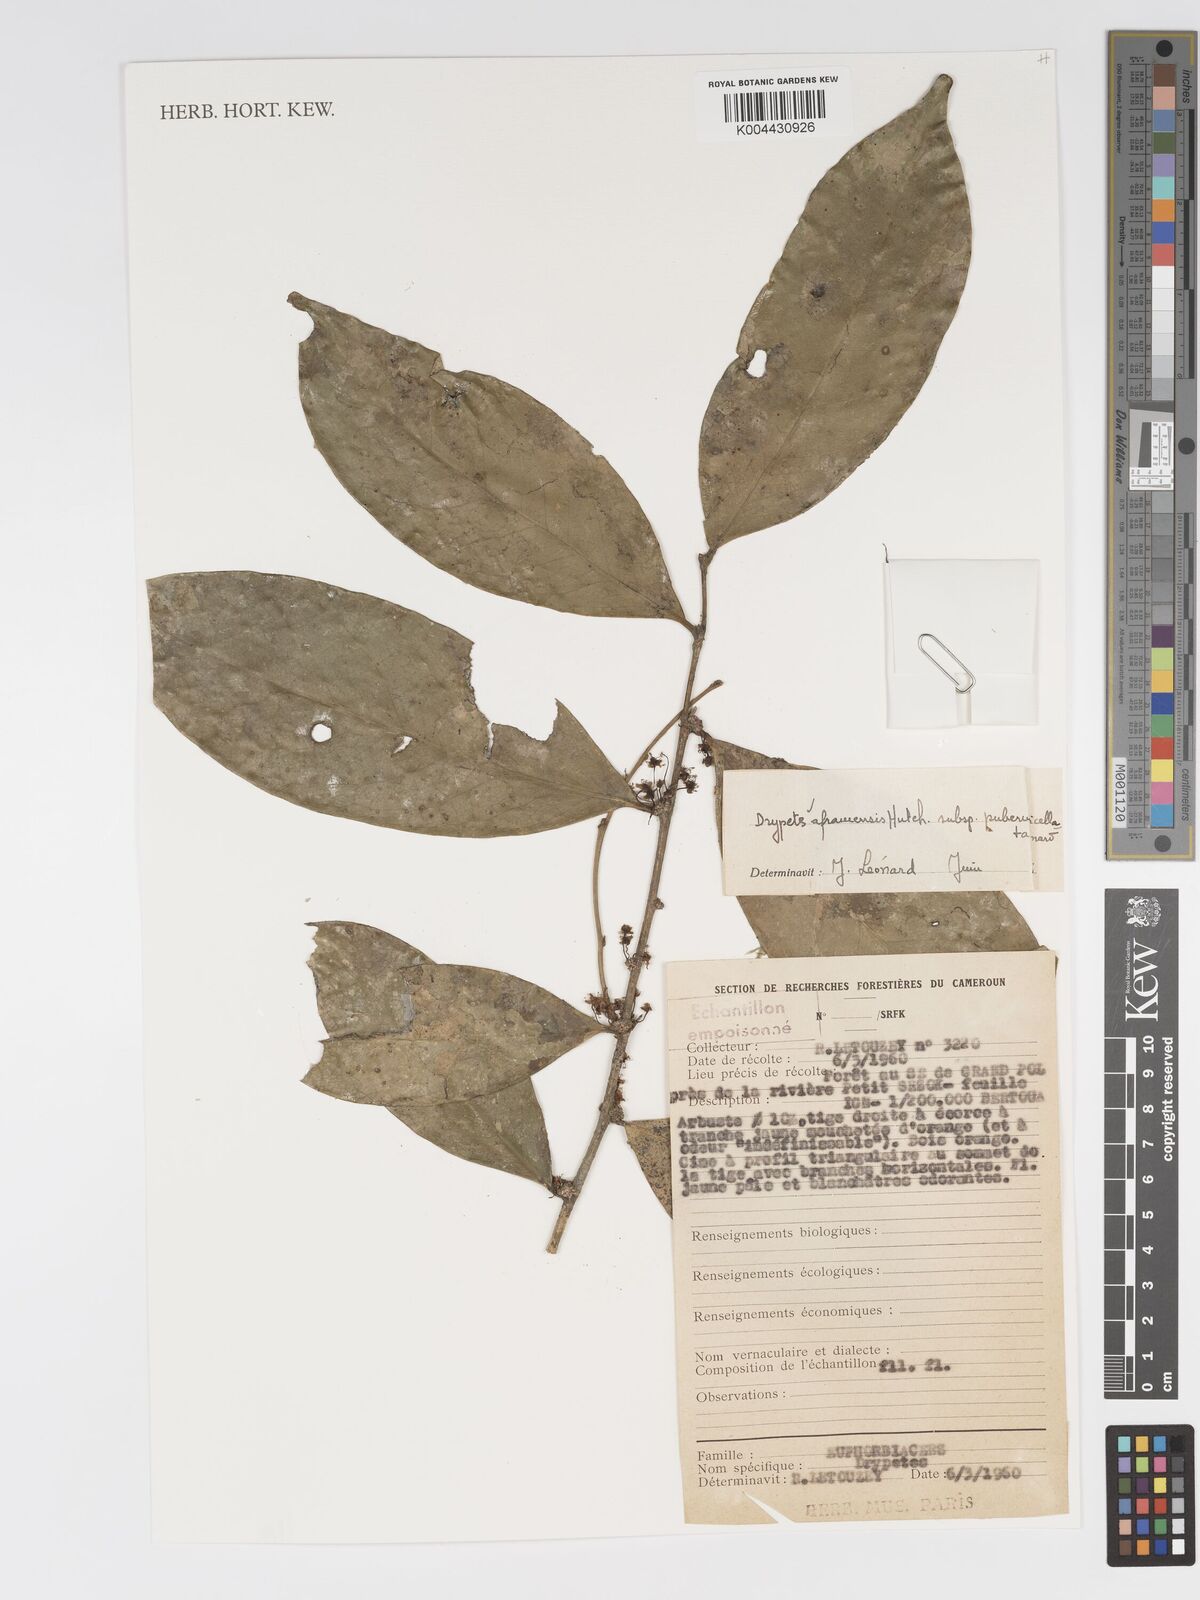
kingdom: Plantae
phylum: Tracheophyta
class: Magnoliopsida
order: Malpighiales
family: Putranjivaceae
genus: Drypetes
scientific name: Drypetes aframensis
